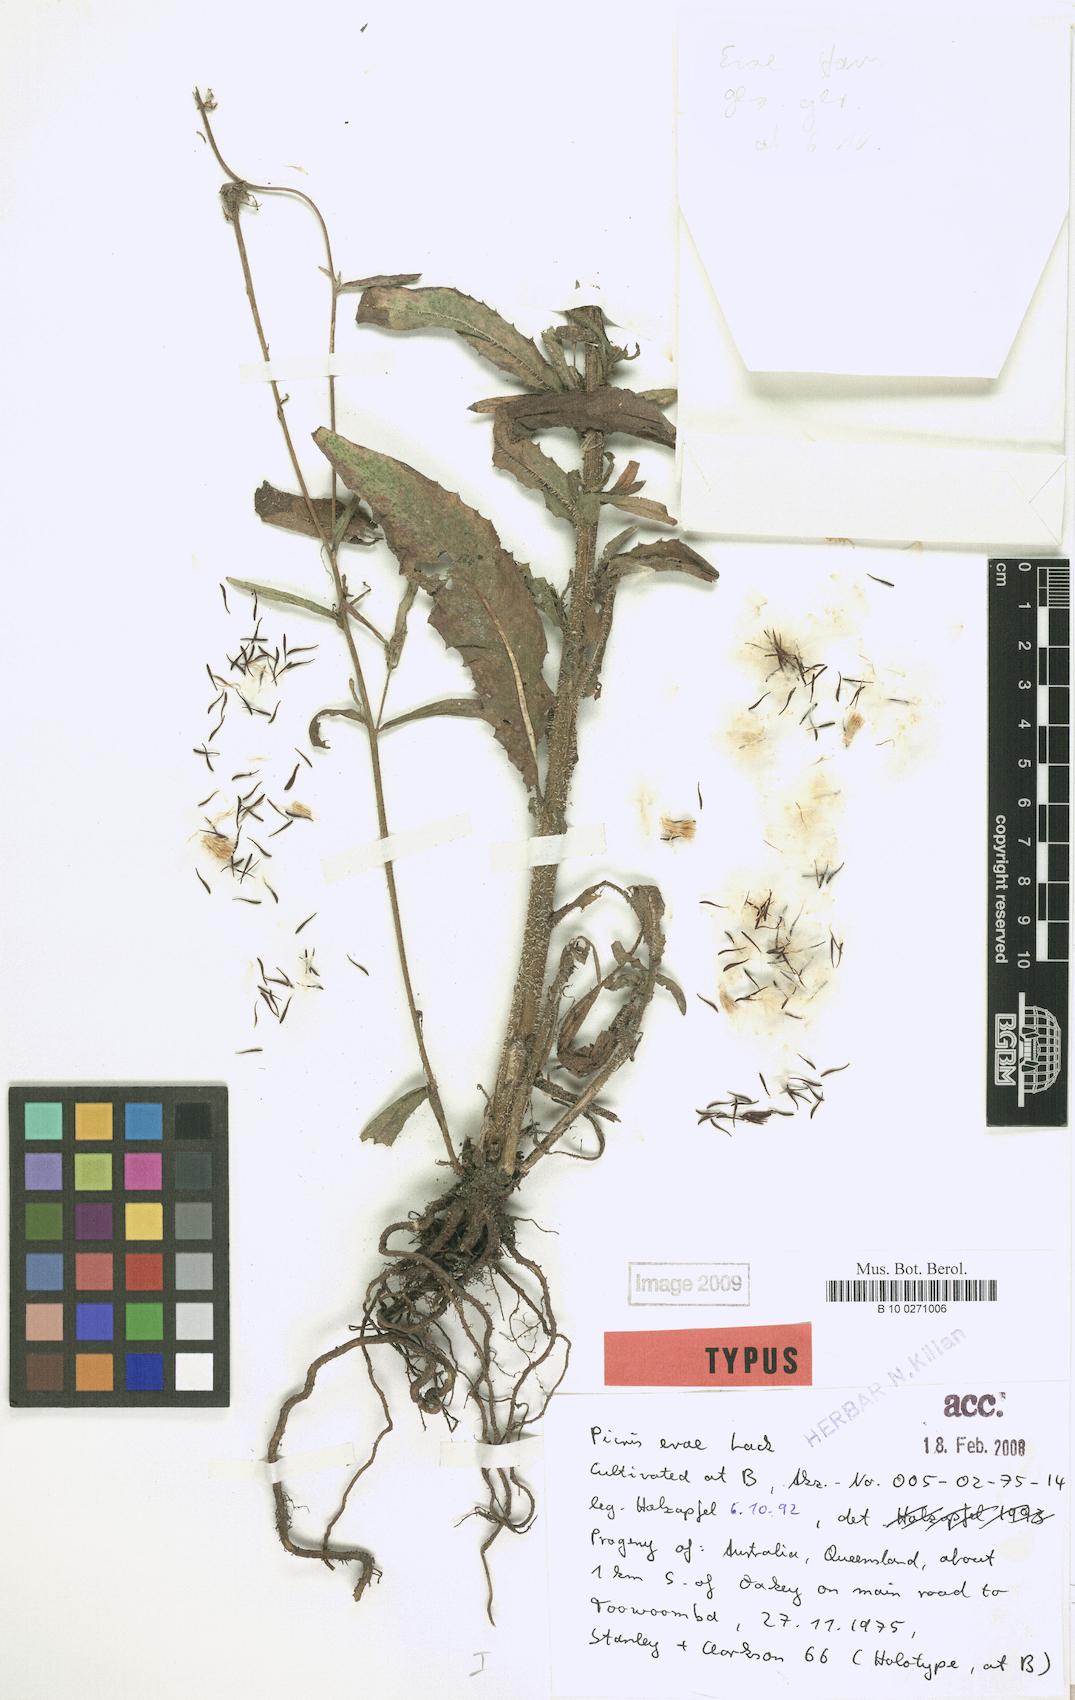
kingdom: Plantae
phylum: Tracheophyta
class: Magnoliopsida
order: Asterales
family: Asteraceae
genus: Picris
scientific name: Picris evae
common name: Hawkweed
